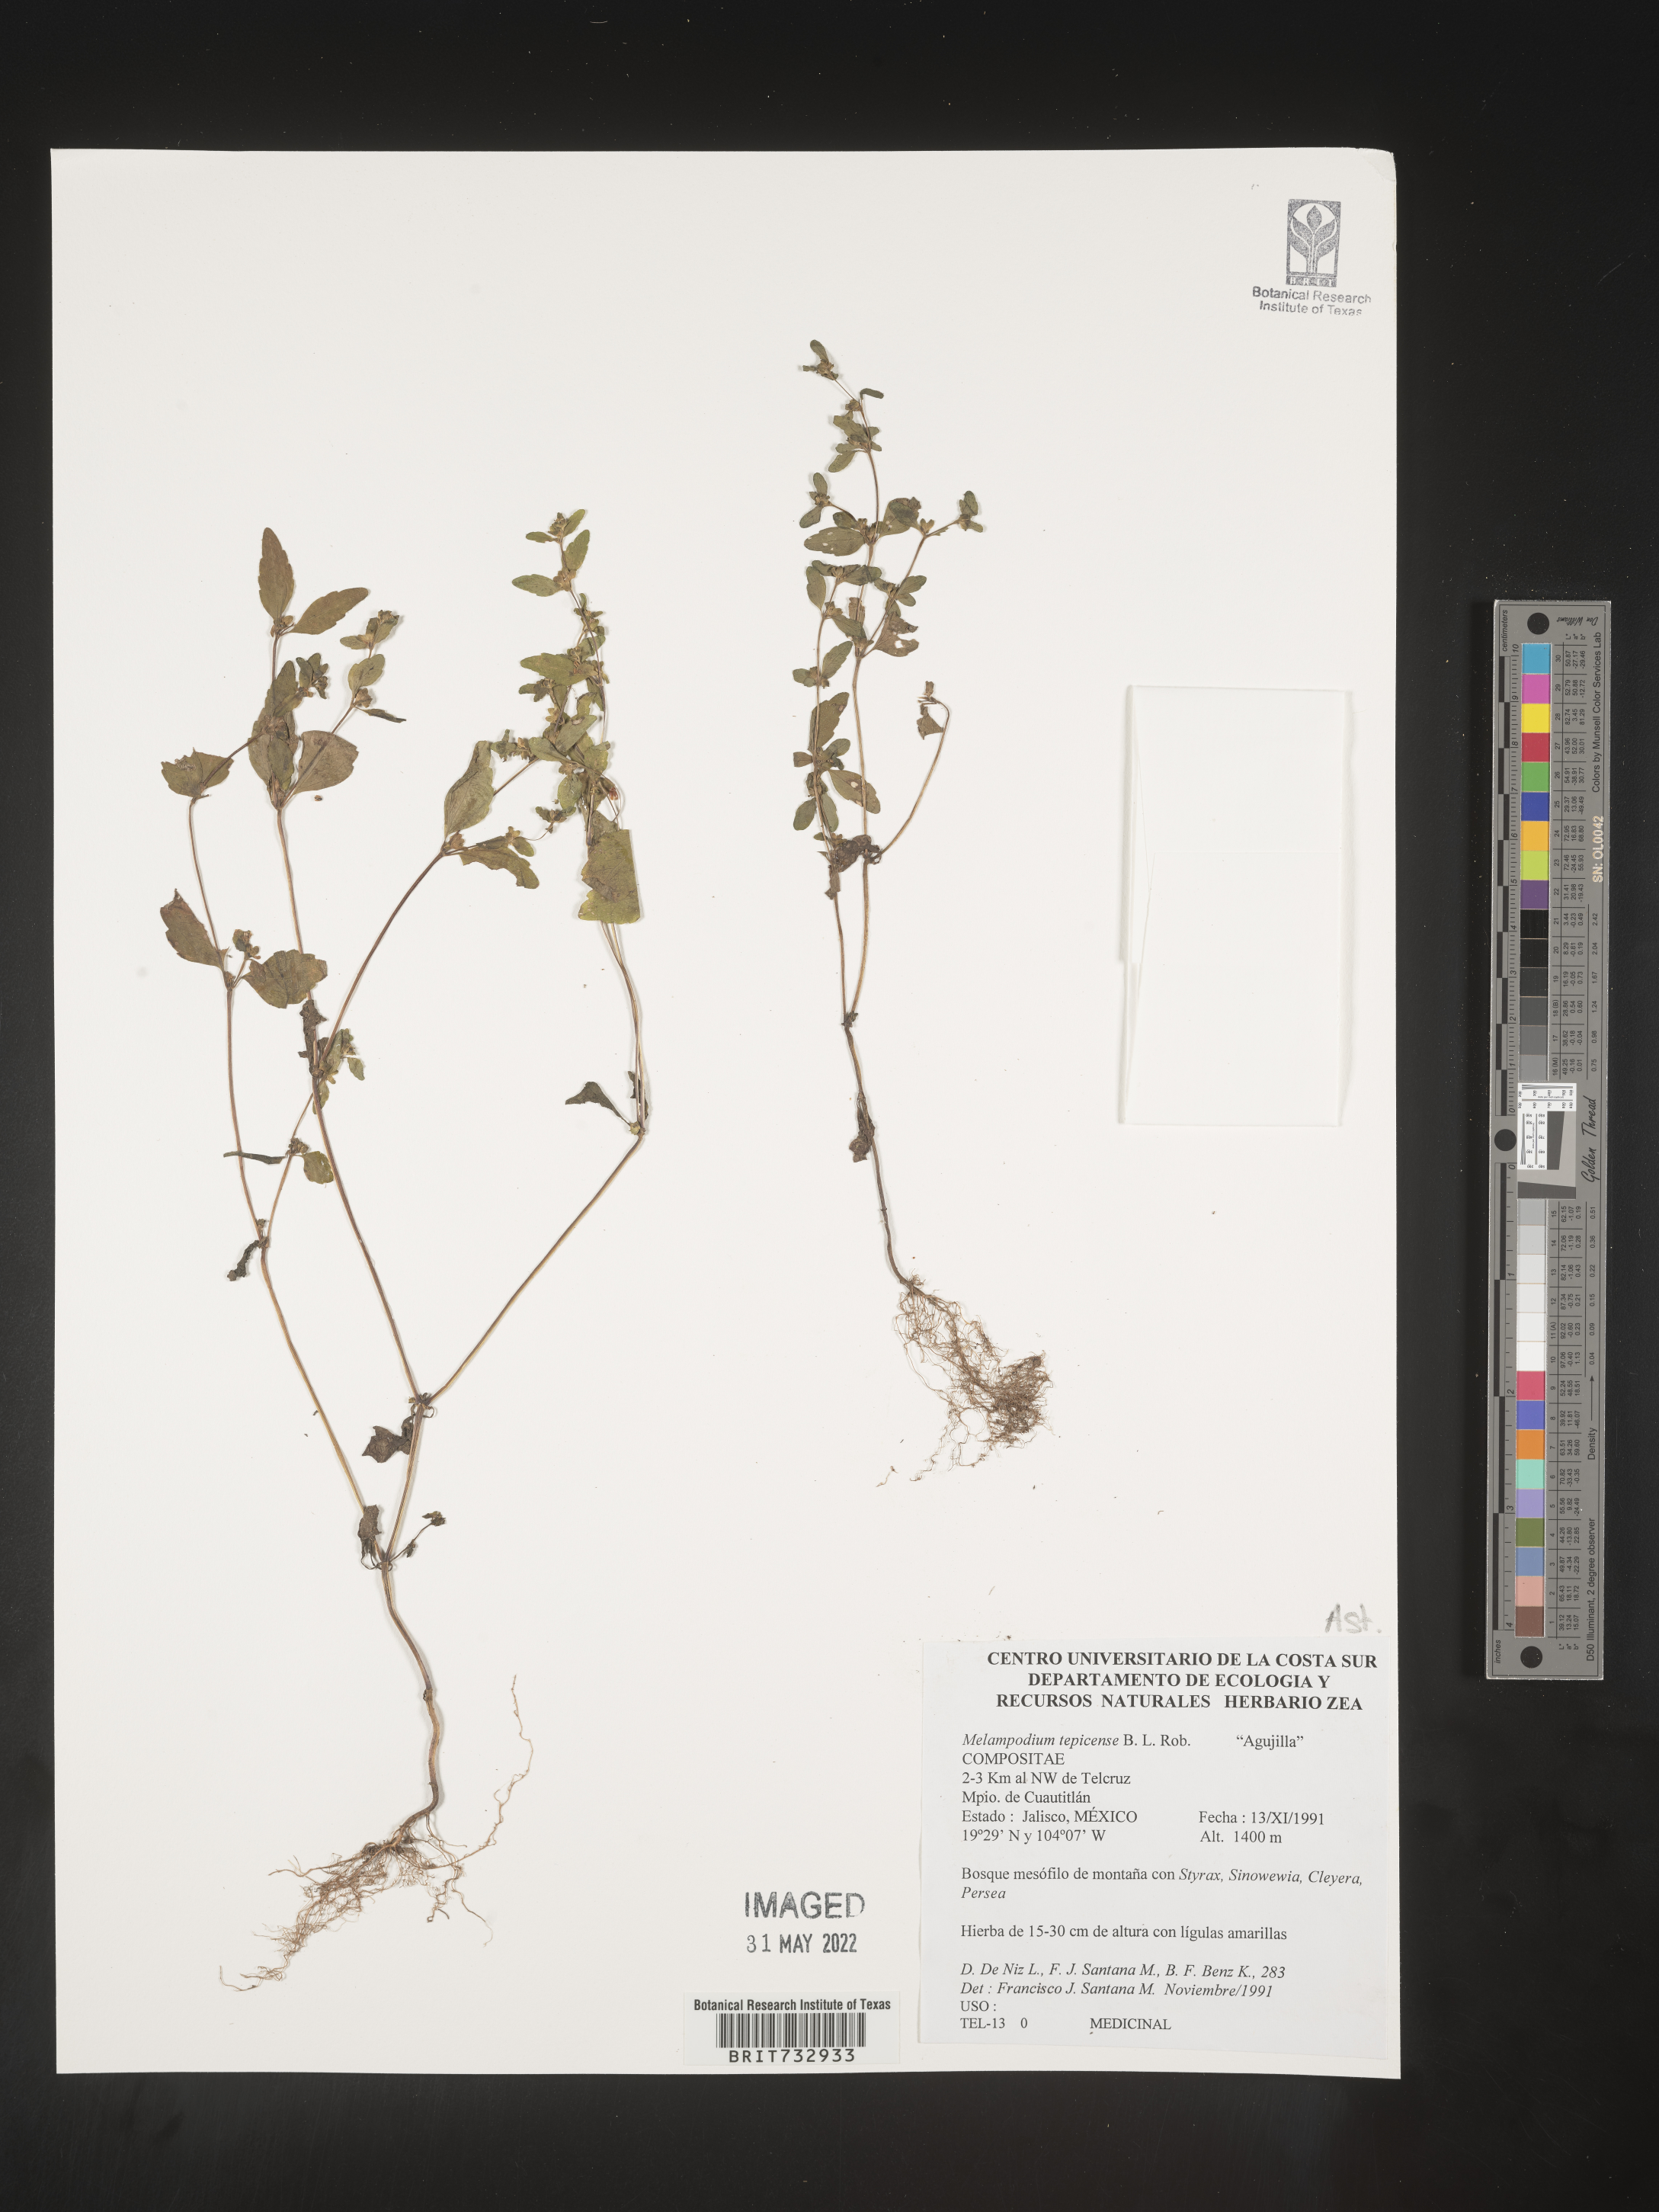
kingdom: Plantae
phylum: Tracheophyta
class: Magnoliopsida
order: Asterales
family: Asteraceae
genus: Melampodium
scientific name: Melampodium
